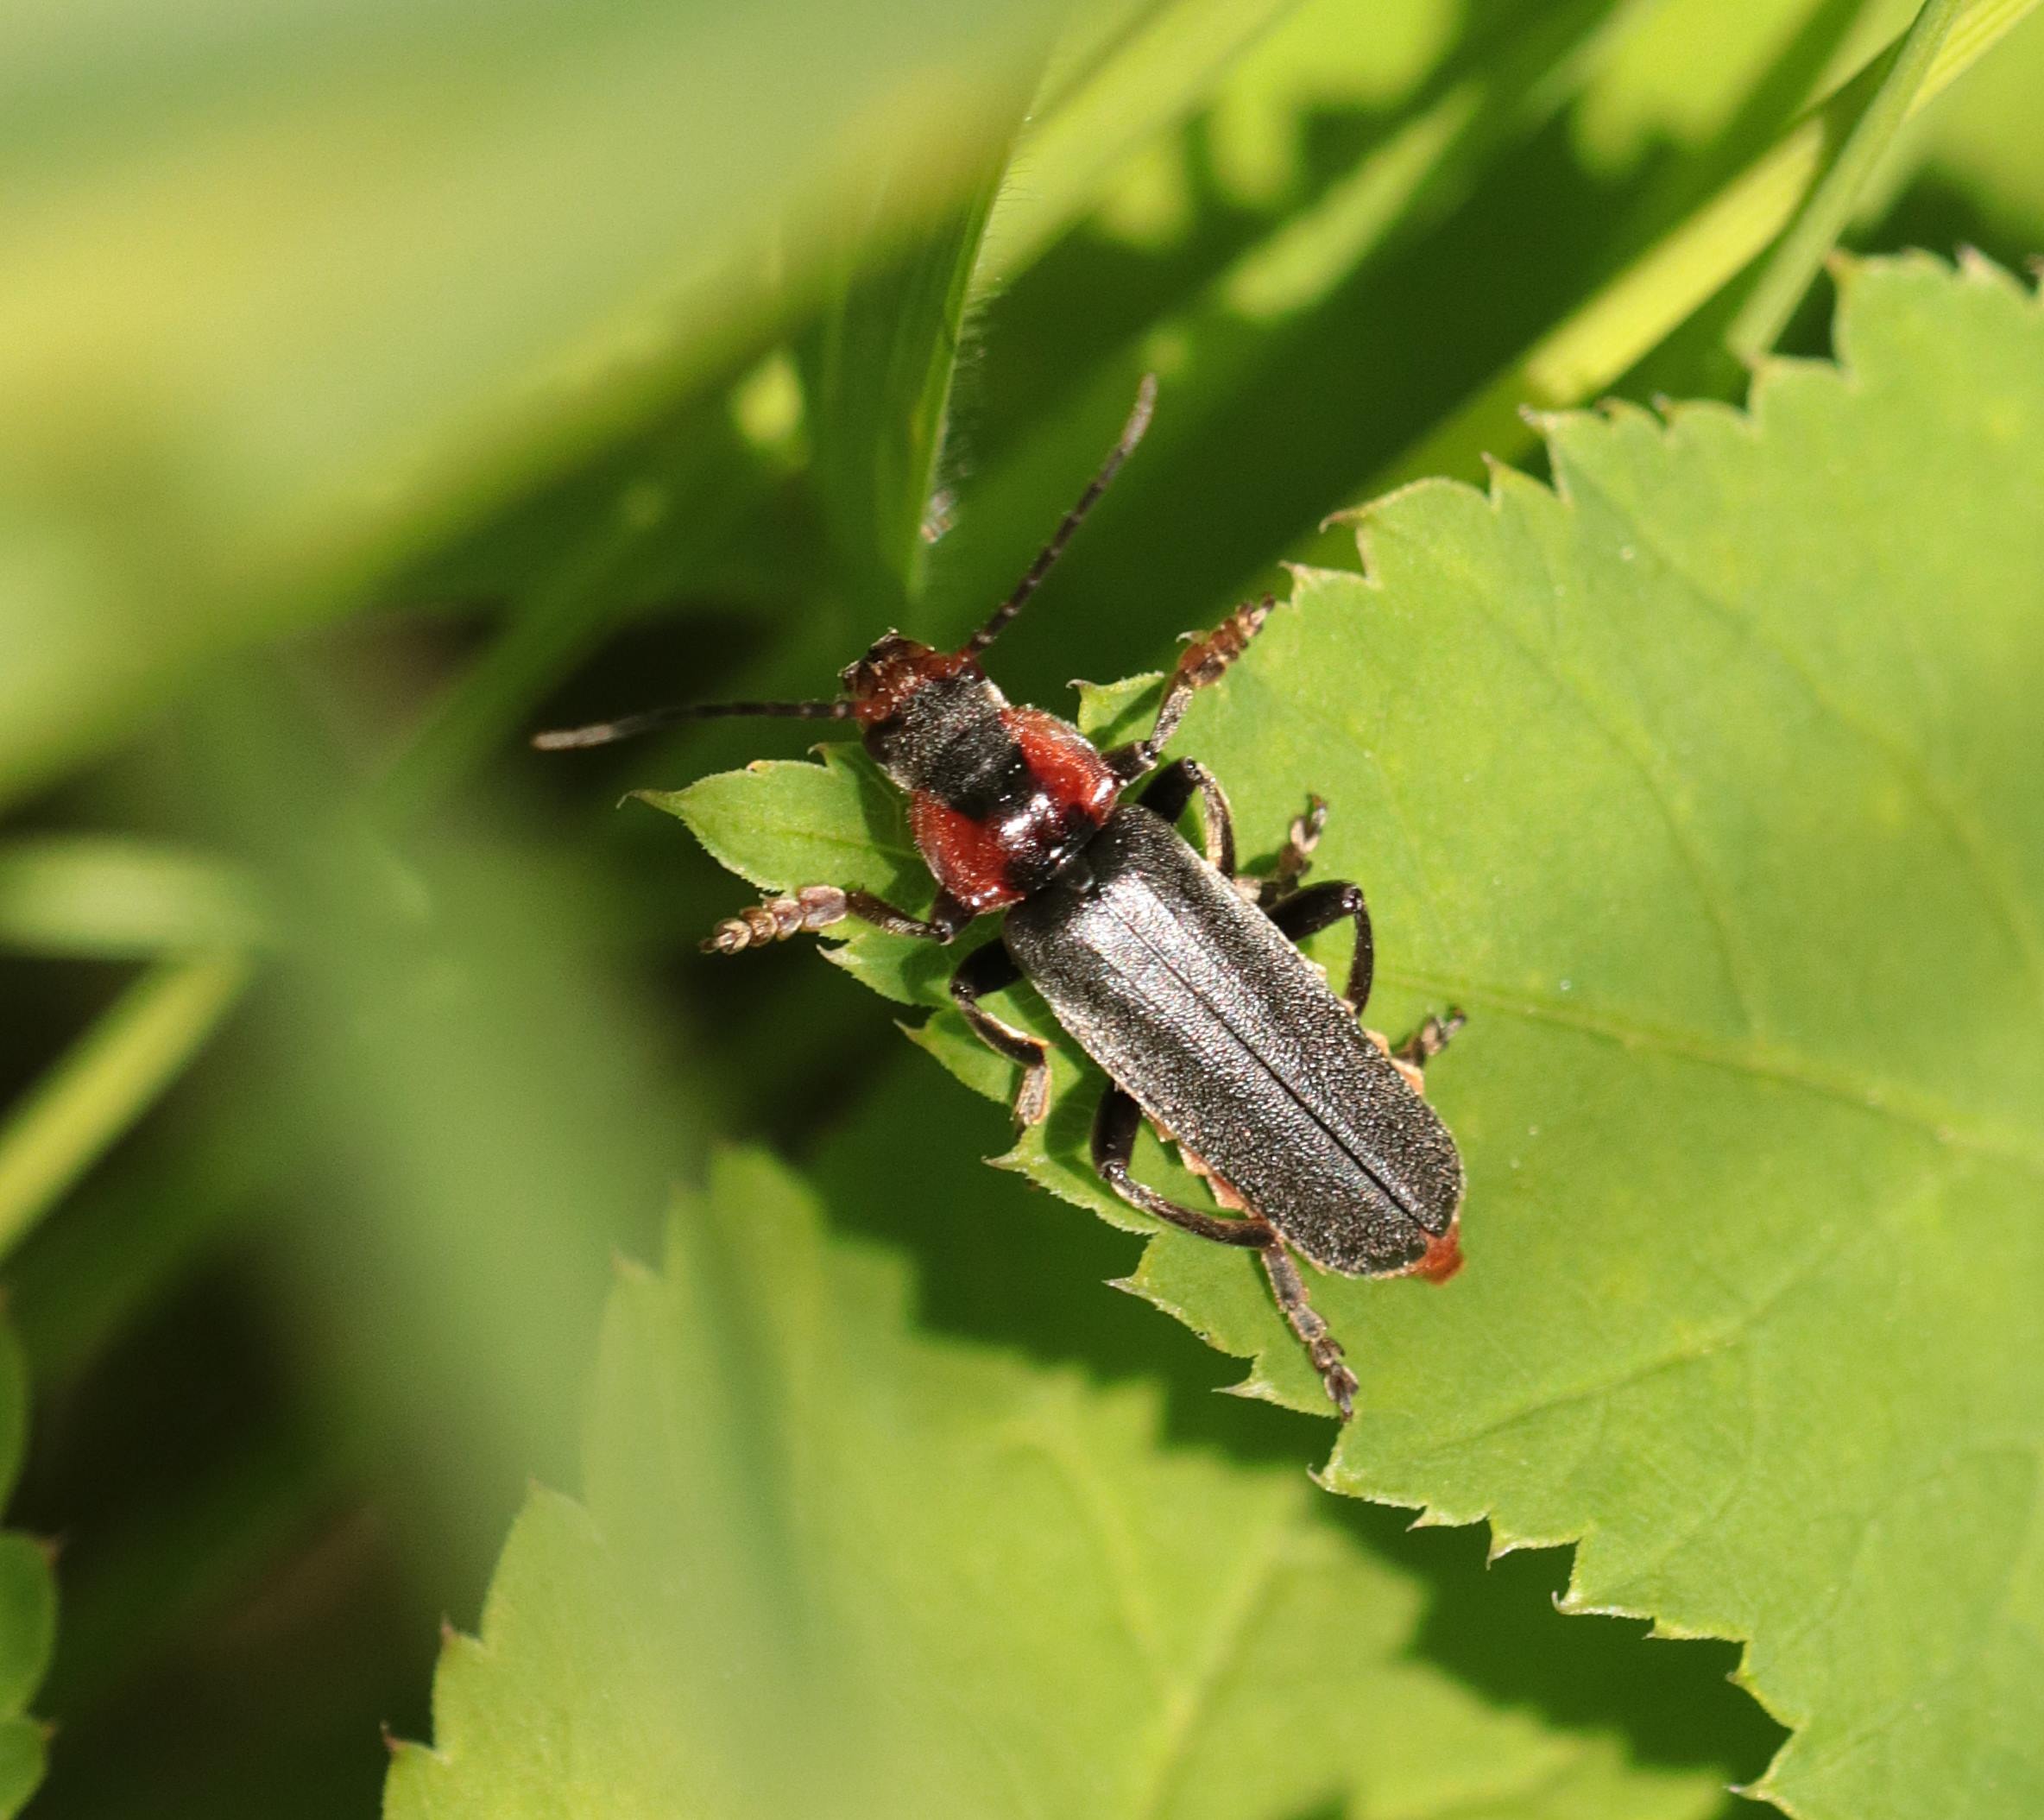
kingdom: Animalia
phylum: Arthropoda
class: Insecta
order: Coleoptera
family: Cantharidae
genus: Cantharis
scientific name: Cantharis fusca
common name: Stor blødvinge
